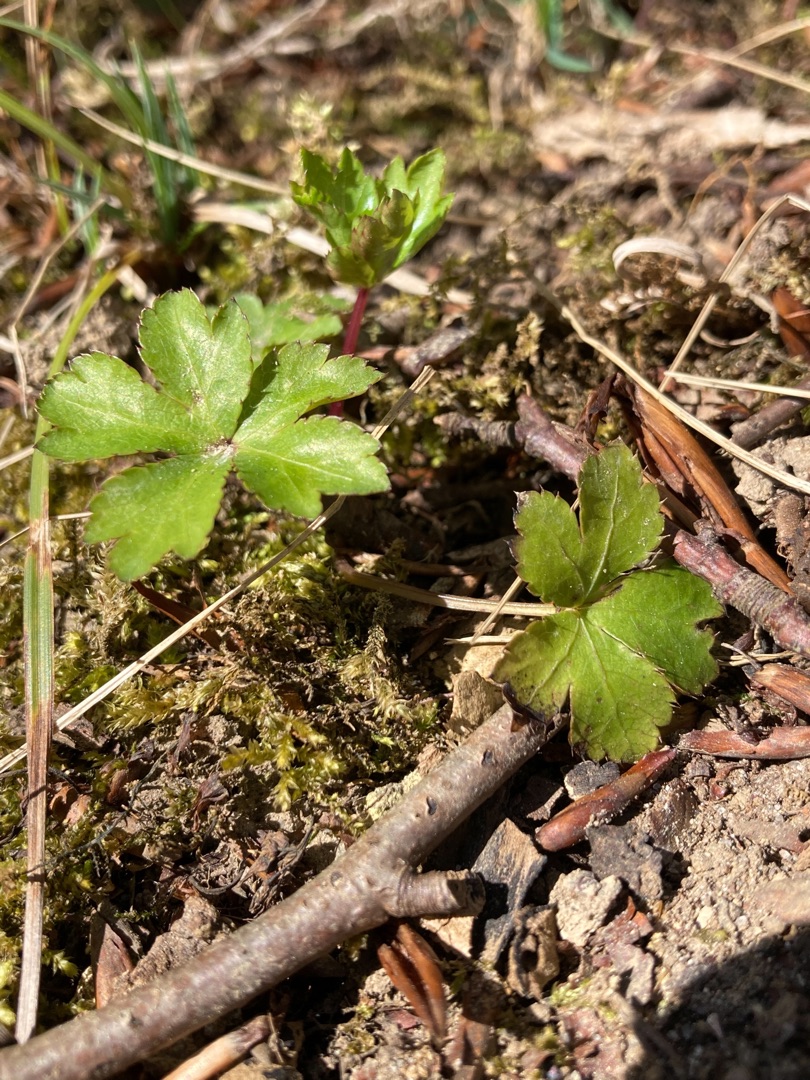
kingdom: Plantae
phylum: Tracheophyta
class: Magnoliopsida
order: Apiales
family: Apiaceae
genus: Sanicula
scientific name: Sanicula europaea
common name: Sanikel
